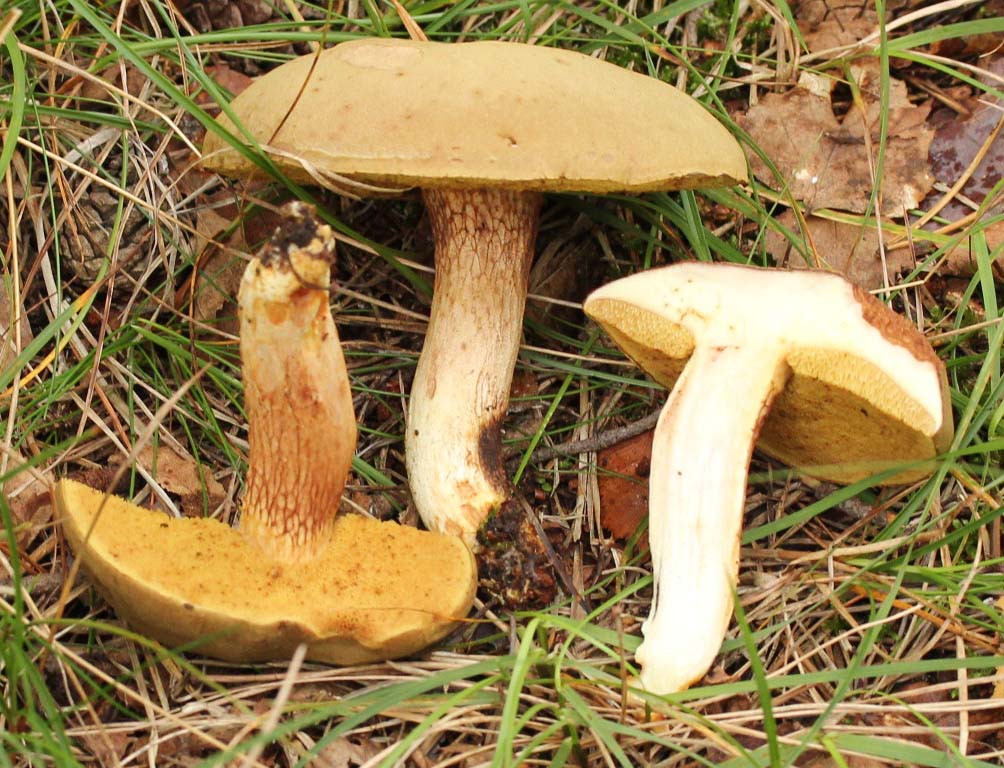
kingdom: Fungi
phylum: Basidiomycota
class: Agaricomycetes
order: Boletales
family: Boletaceae
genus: Xerocomus
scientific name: Xerocomus ferrugineus
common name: vaskeskinds-rørhat
